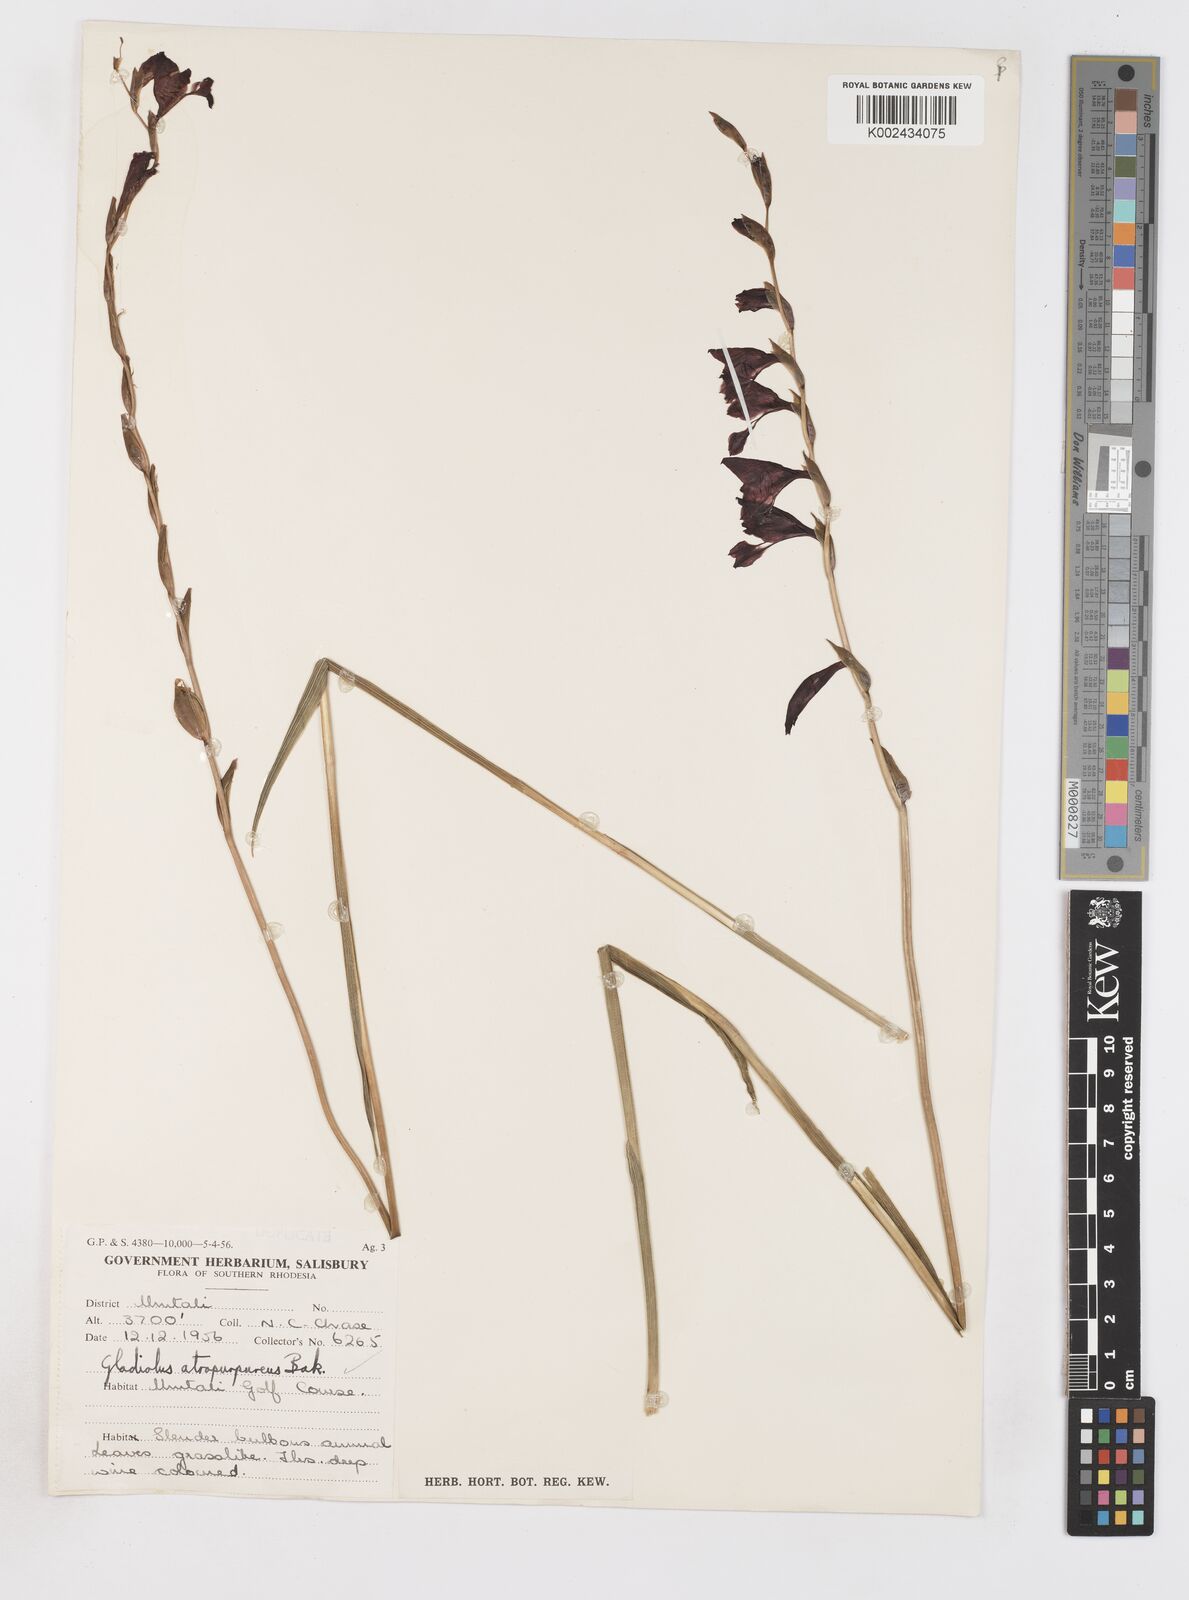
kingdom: Plantae
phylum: Tracheophyta
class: Liliopsida
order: Asparagales
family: Iridaceae
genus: Gladiolus
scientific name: Gladiolus atropurpureus
